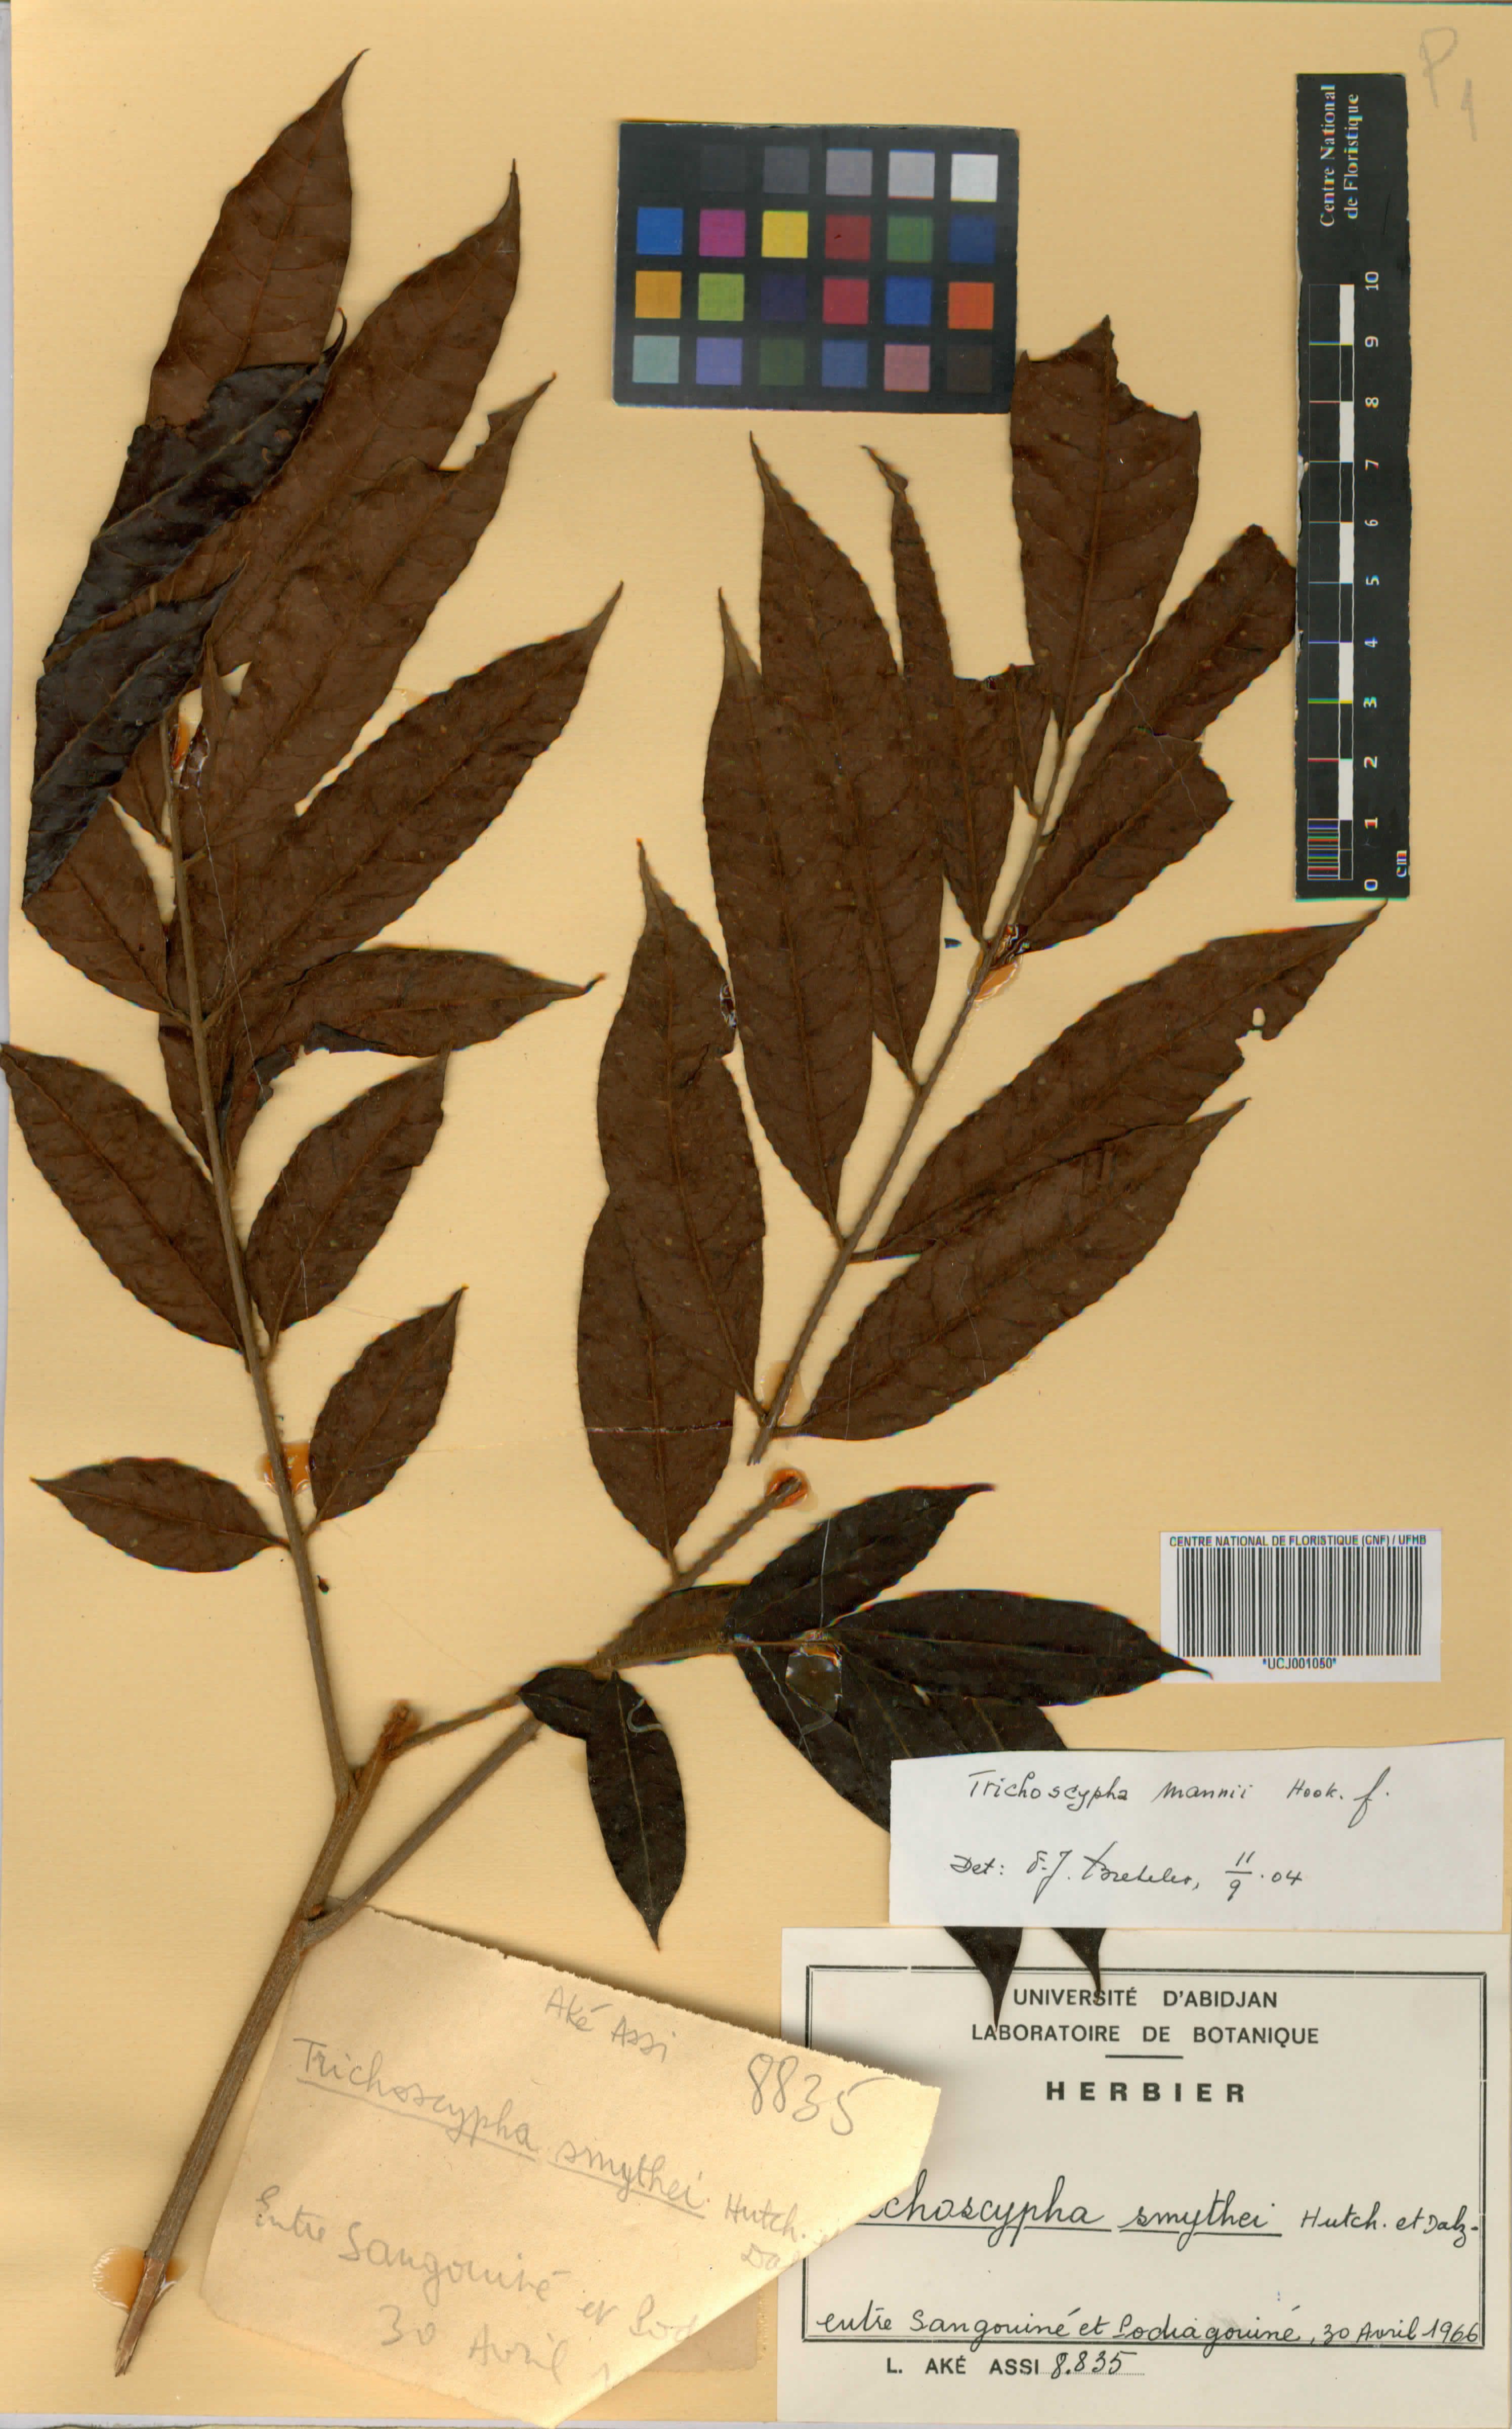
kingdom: Plantae
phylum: Tracheophyta
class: Magnoliopsida
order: Sapindales
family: Anacardiaceae
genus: Trichoscypha
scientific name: Trichoscypha smythei
